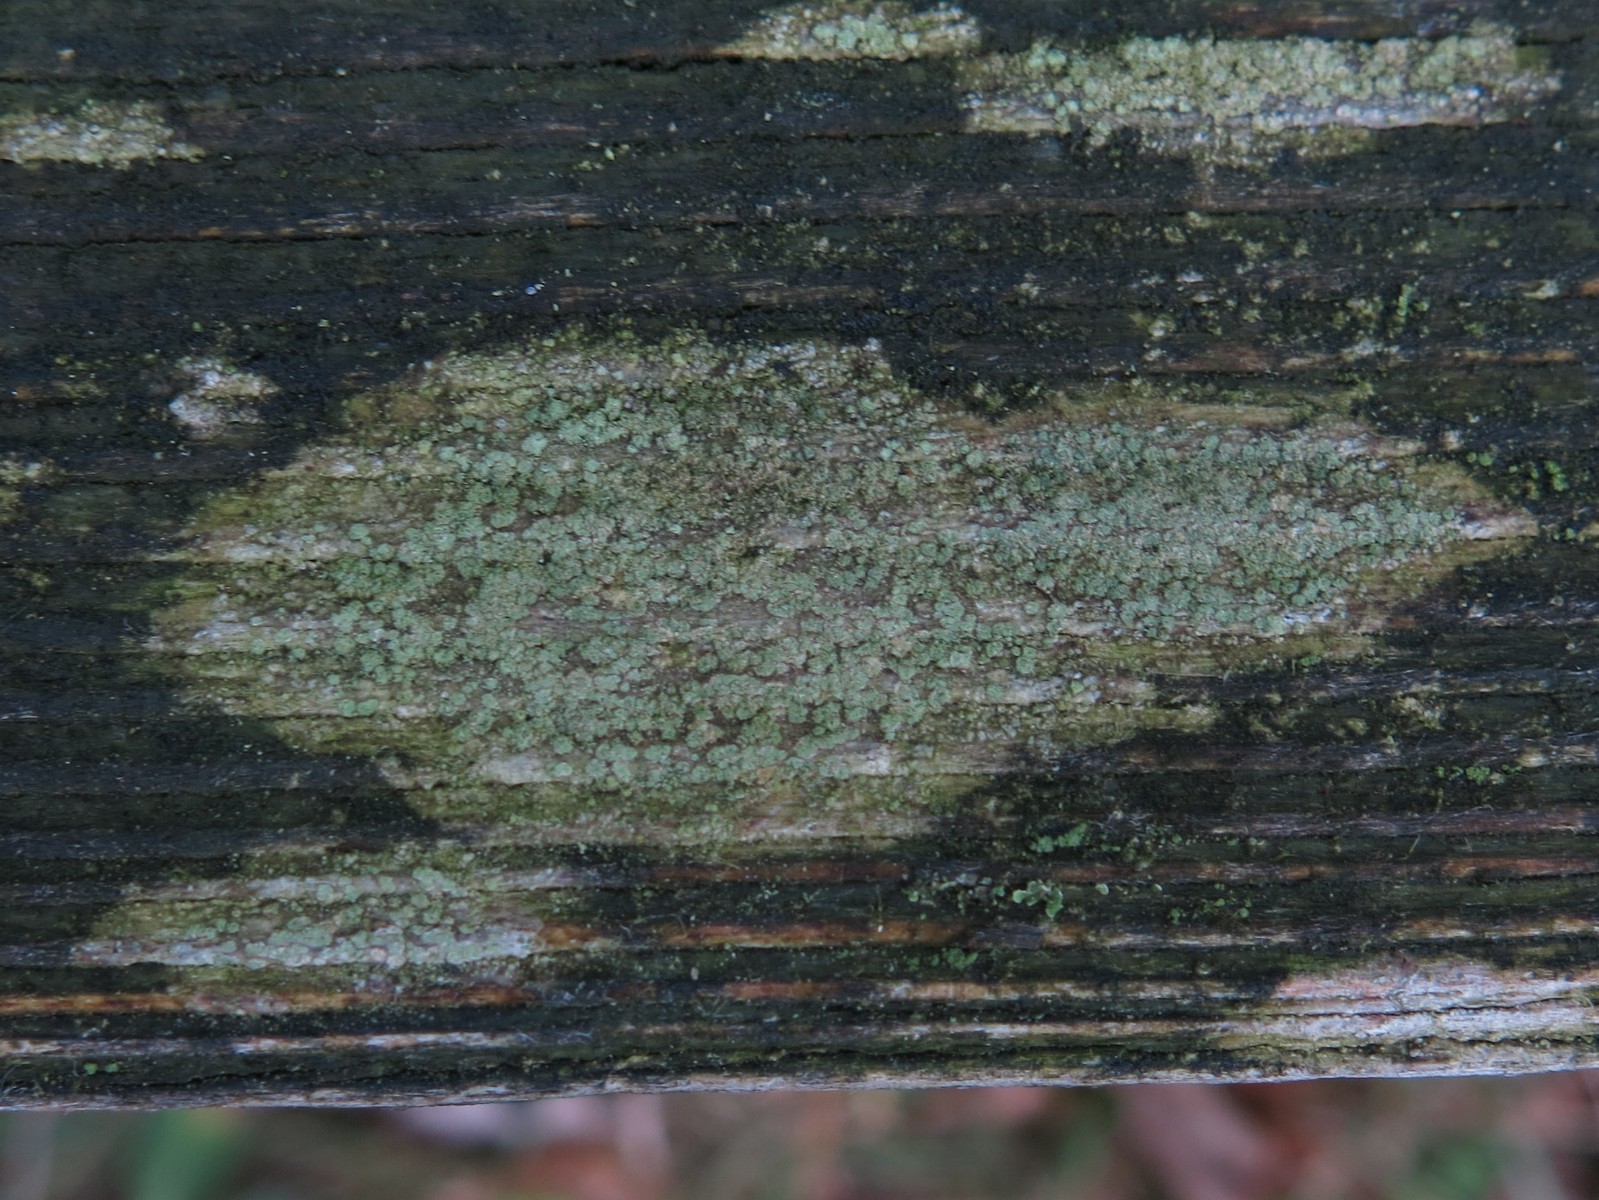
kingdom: Fungi
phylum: Ascomycota
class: Lecanoromycetes
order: Caliciales
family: Caliciaceae
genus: Buellia
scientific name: Buellia griseovirens
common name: grågrøn sortskivelav
